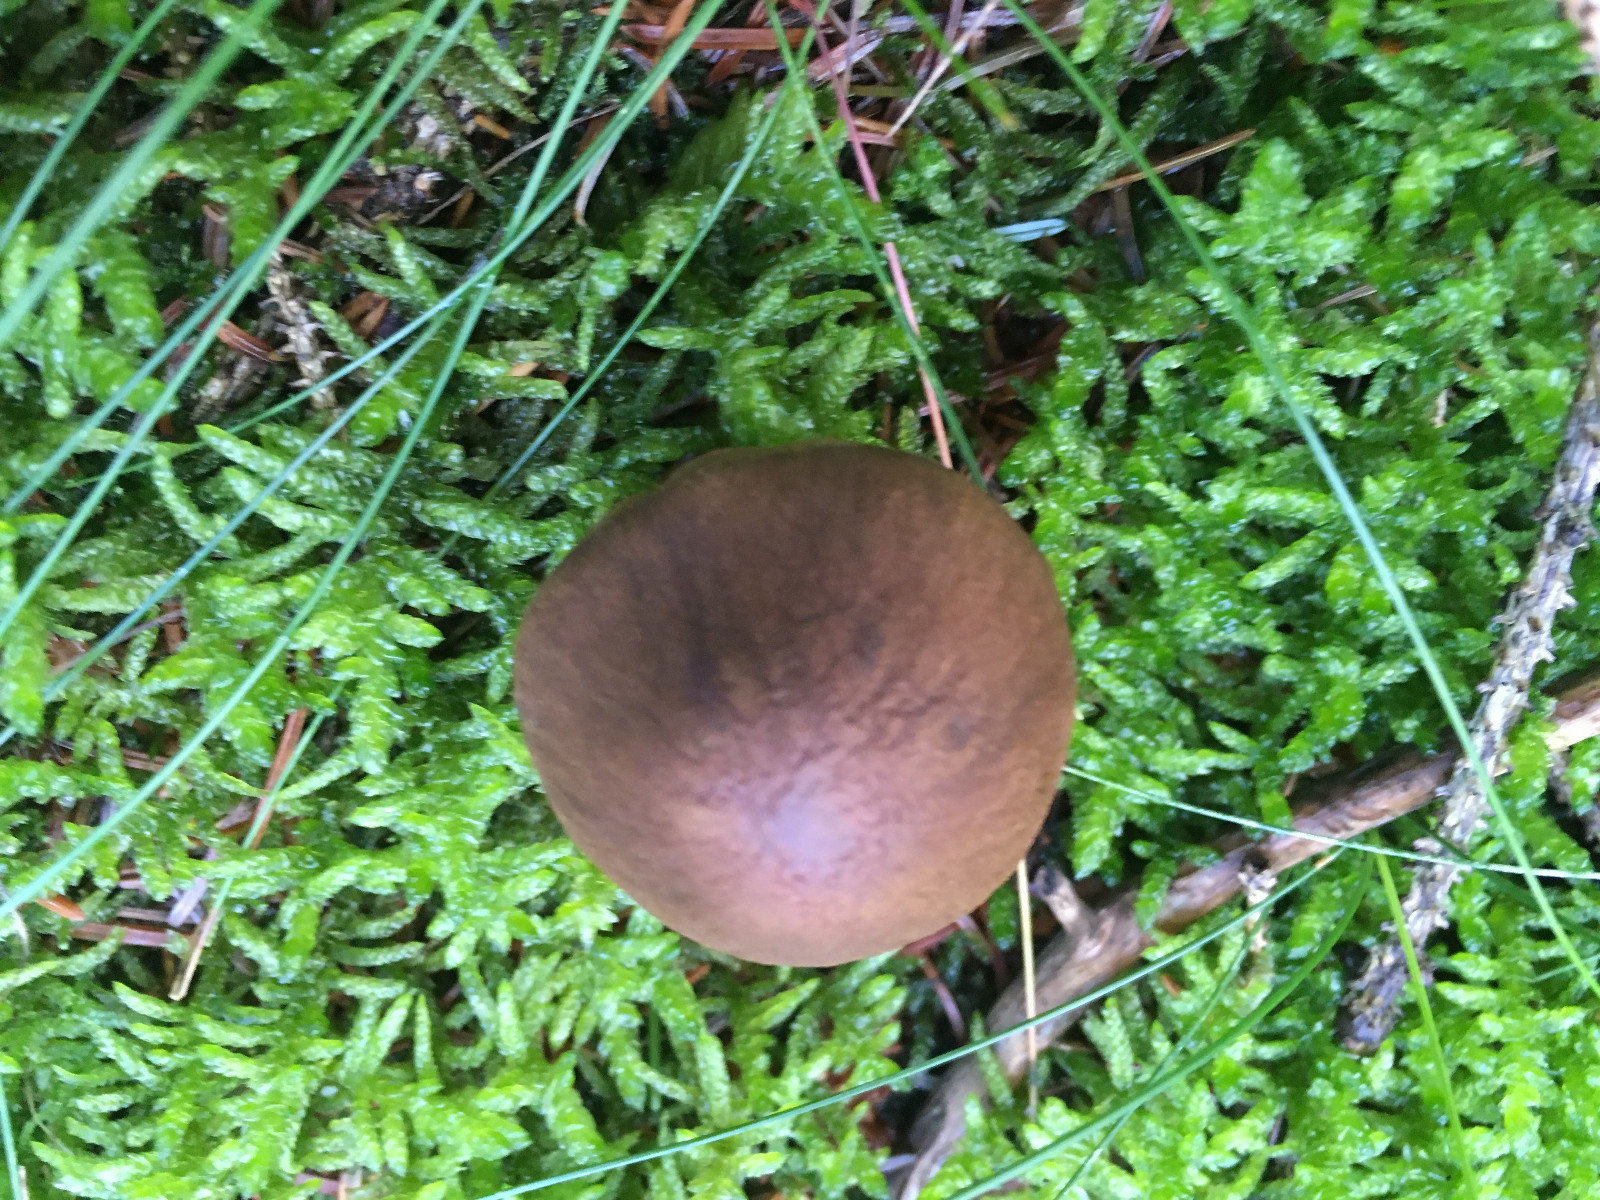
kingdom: Fungi
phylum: Basidiomycota
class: Agaricomycetes
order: Agaricales
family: Cortinariaceae
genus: Cortinarius
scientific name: Cortinarius
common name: cinnoberbladet slørhat
